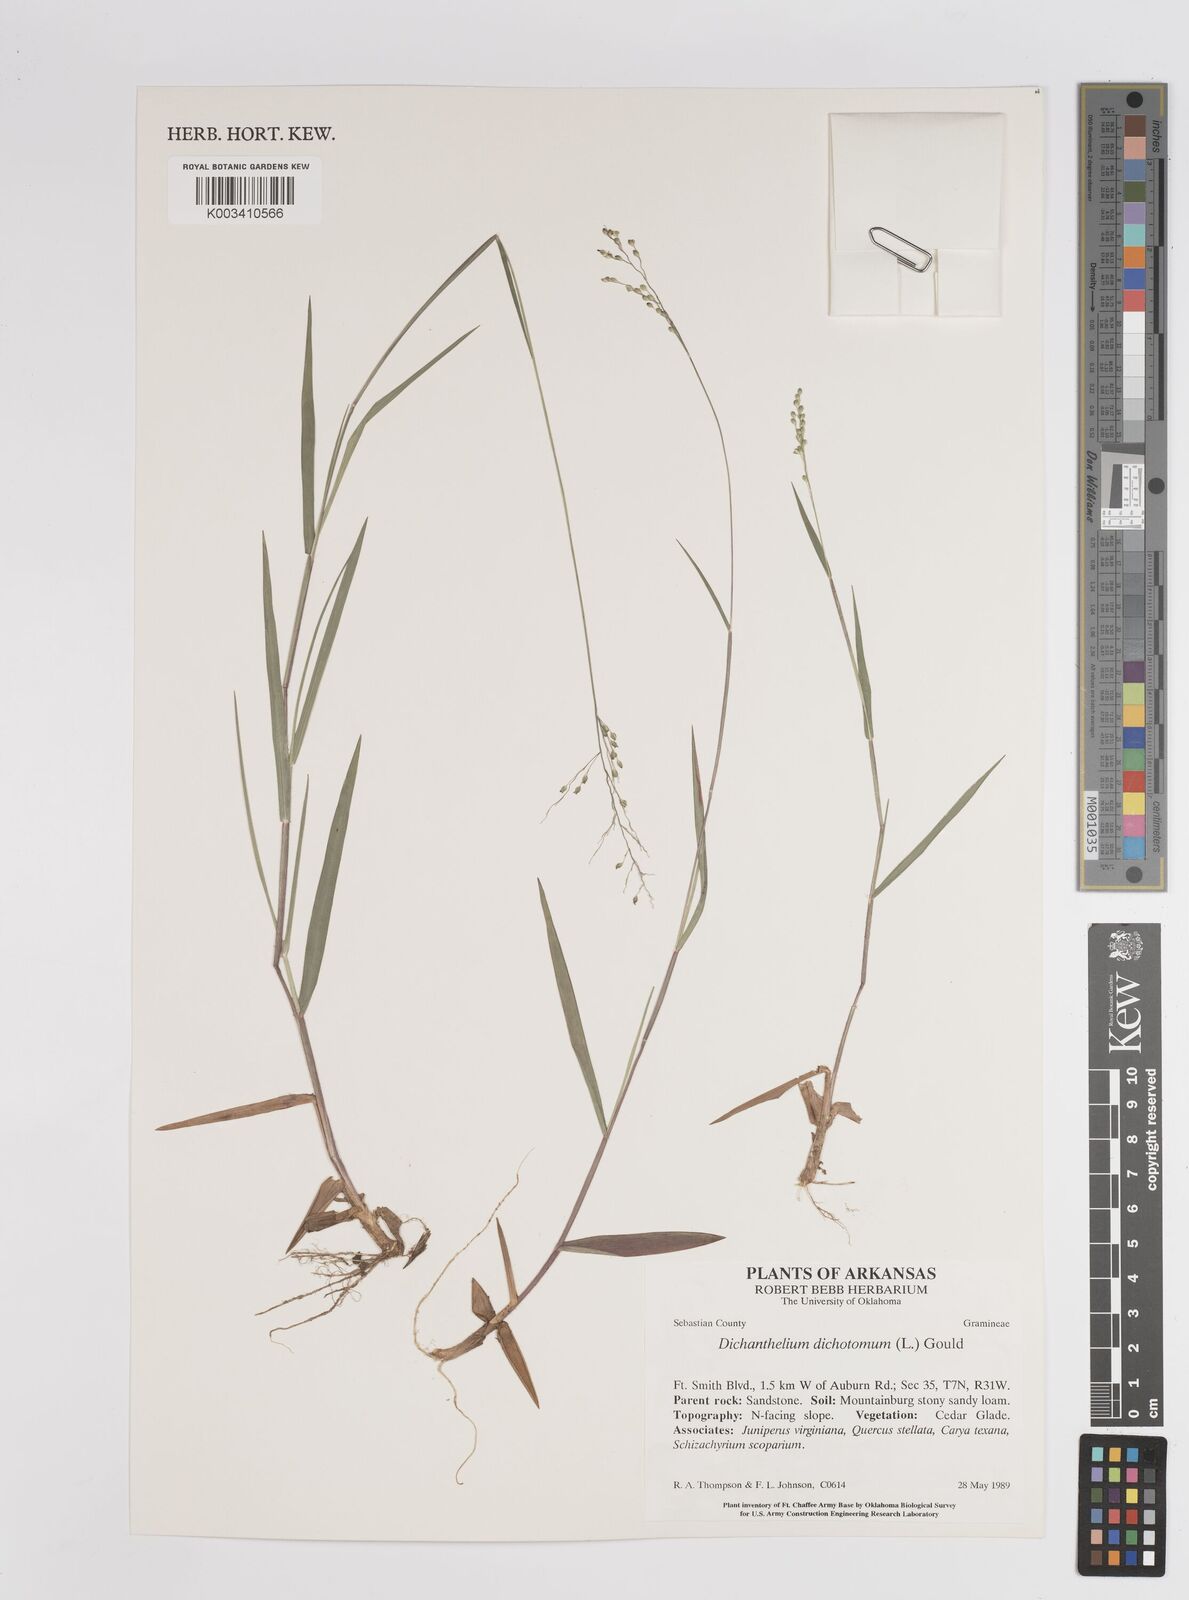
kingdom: Plantae
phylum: Tracheophyta
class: Liliopsida
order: Poales
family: Poaceae
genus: Dichanthelium
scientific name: Dichanthelium dichotomum
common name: Cypress panicgrass
